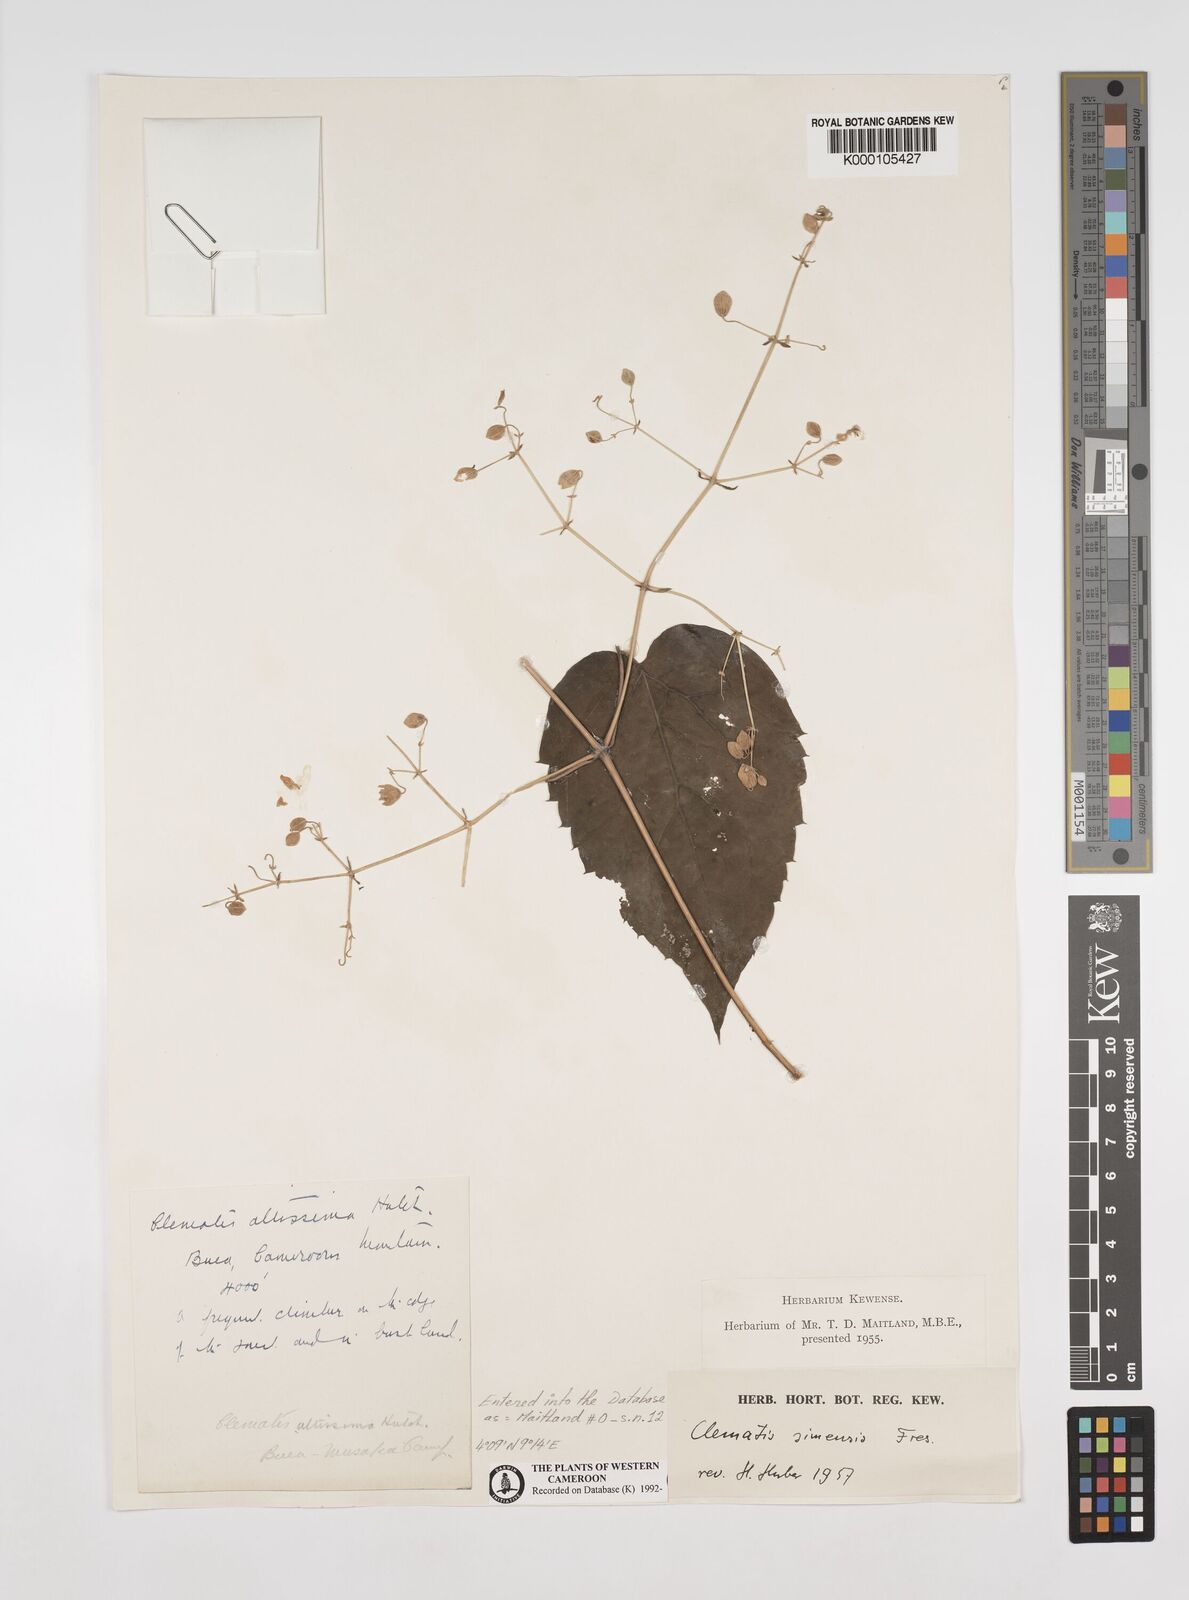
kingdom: Plantae
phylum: Tracheophyta
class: Magnoliopsida
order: Ranunculales
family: Ranunculaceae
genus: Clematis
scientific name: Clematis simensis
